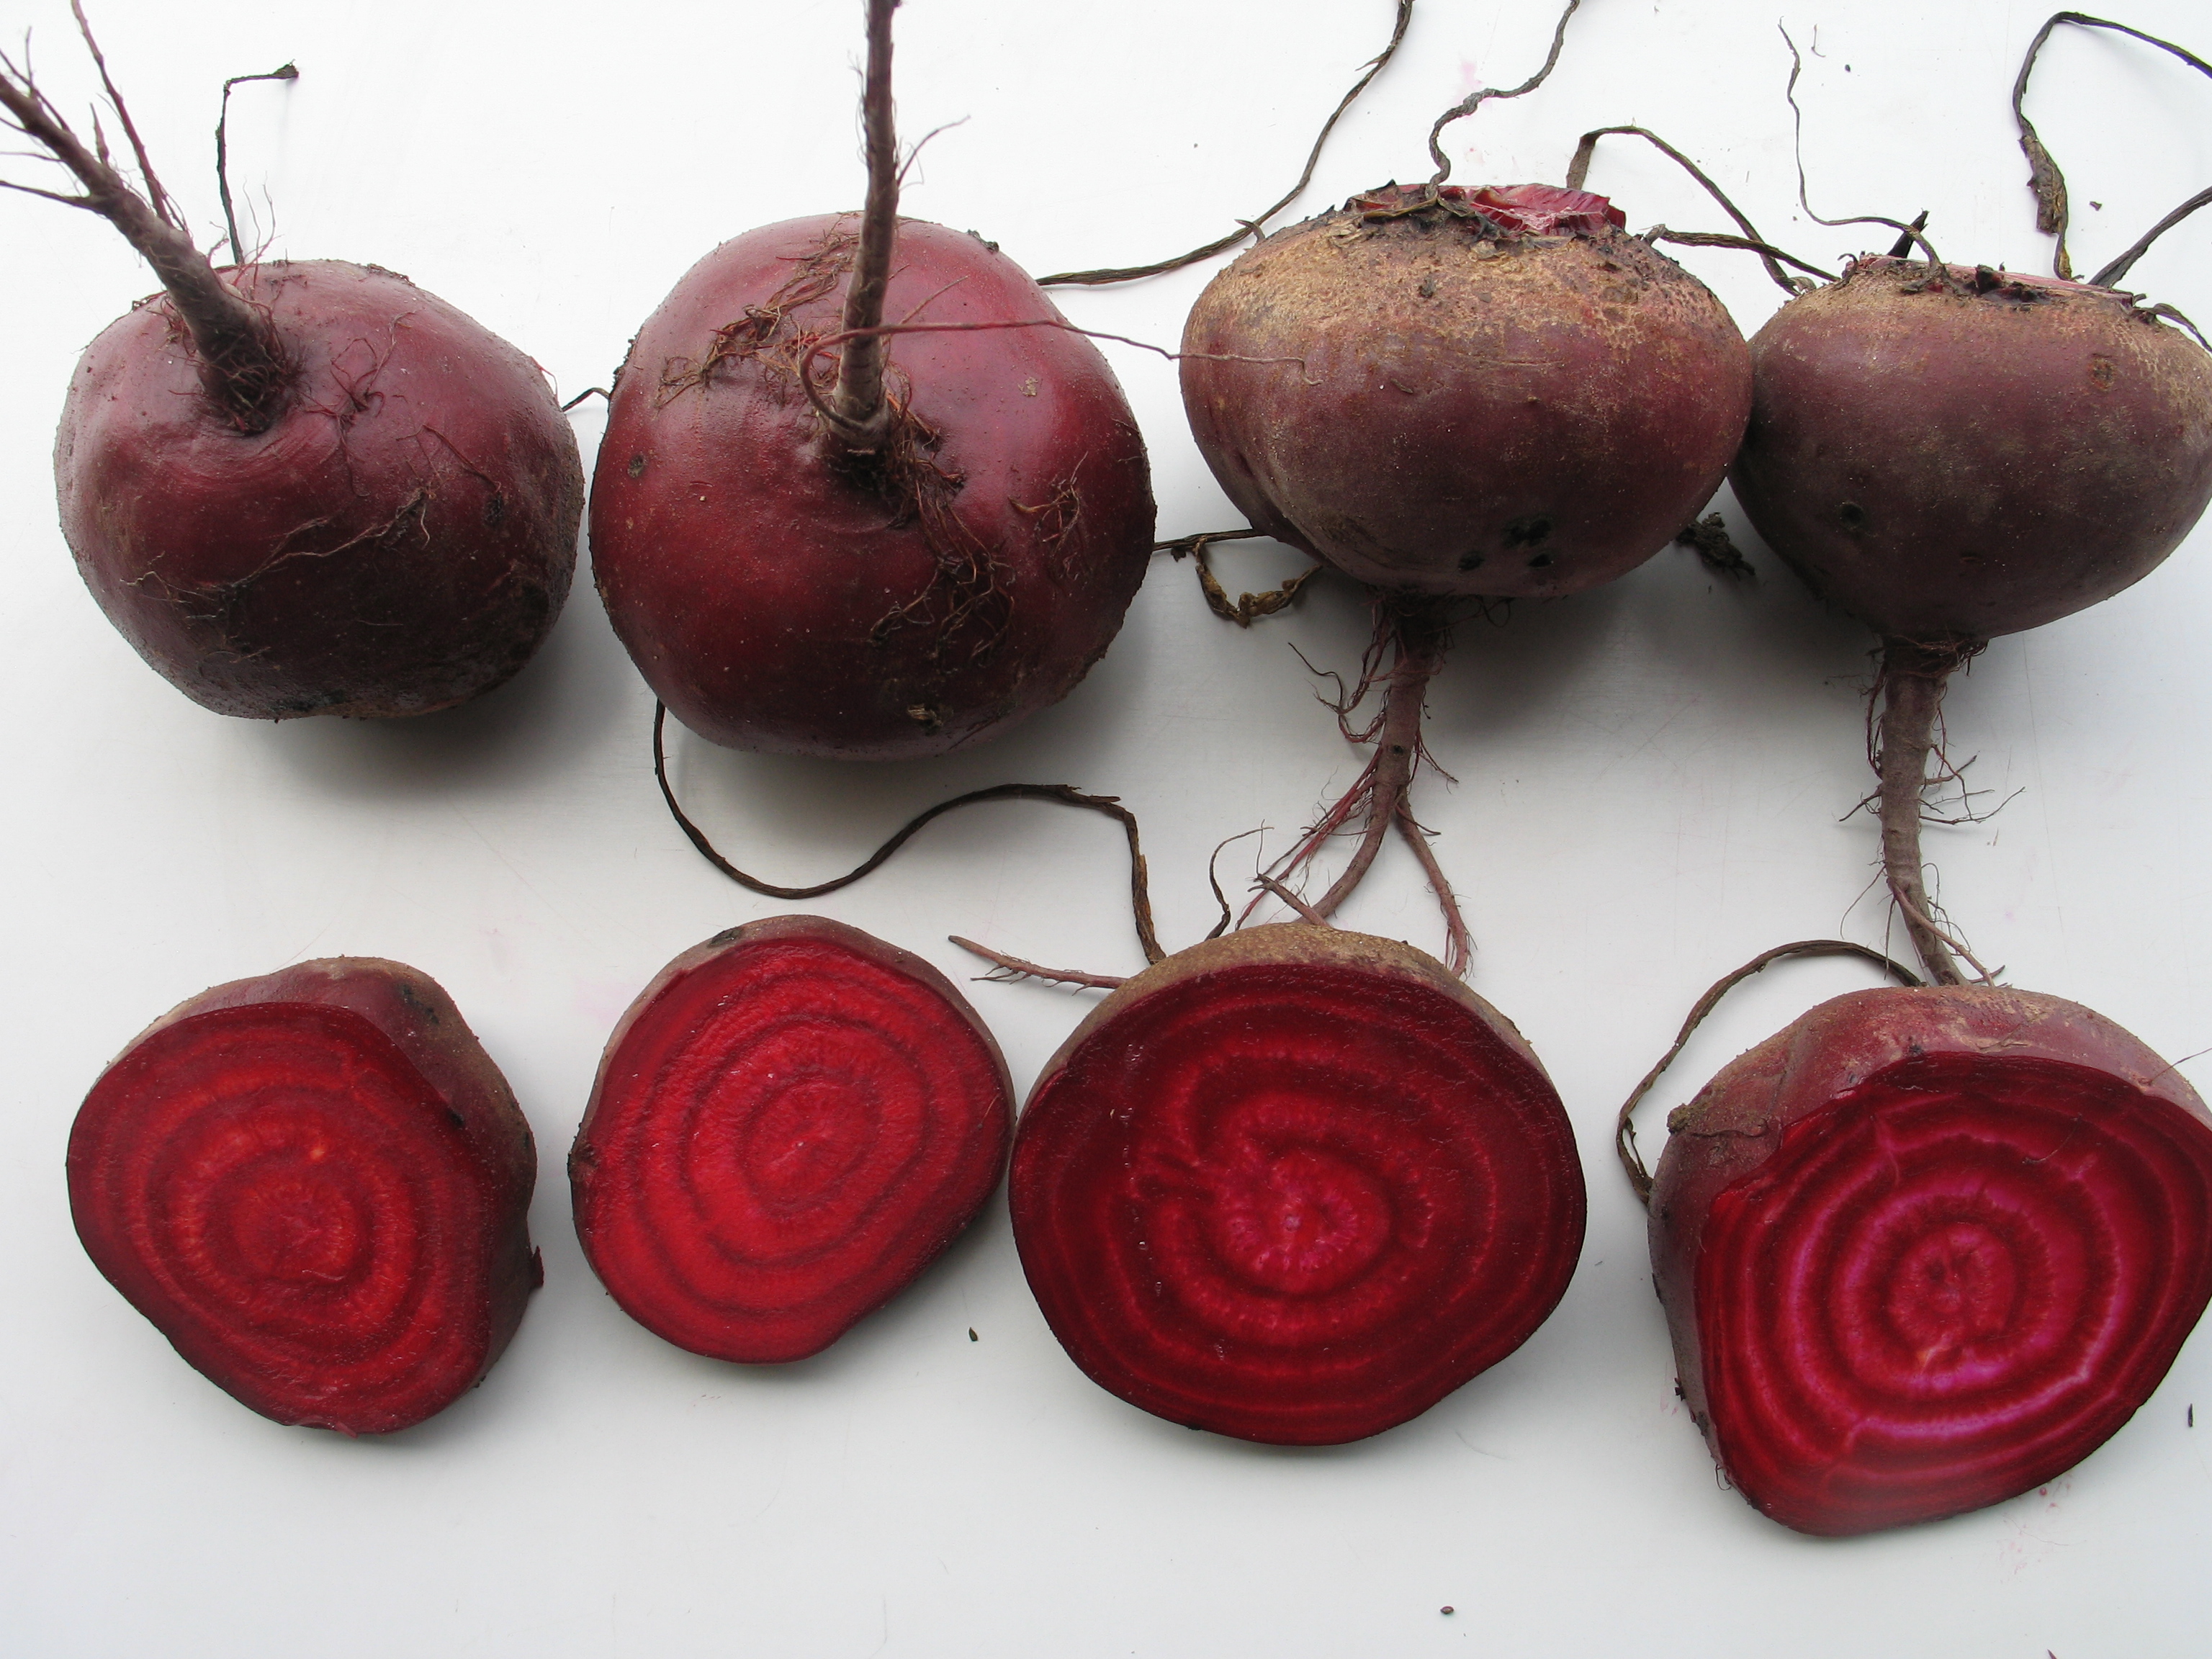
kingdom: Plantae
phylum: Tracheophyta
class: Magnoliopsida
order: Caryophyllales
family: Amaranthaceae
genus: Beta
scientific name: Beta vulgaris
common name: Beet
